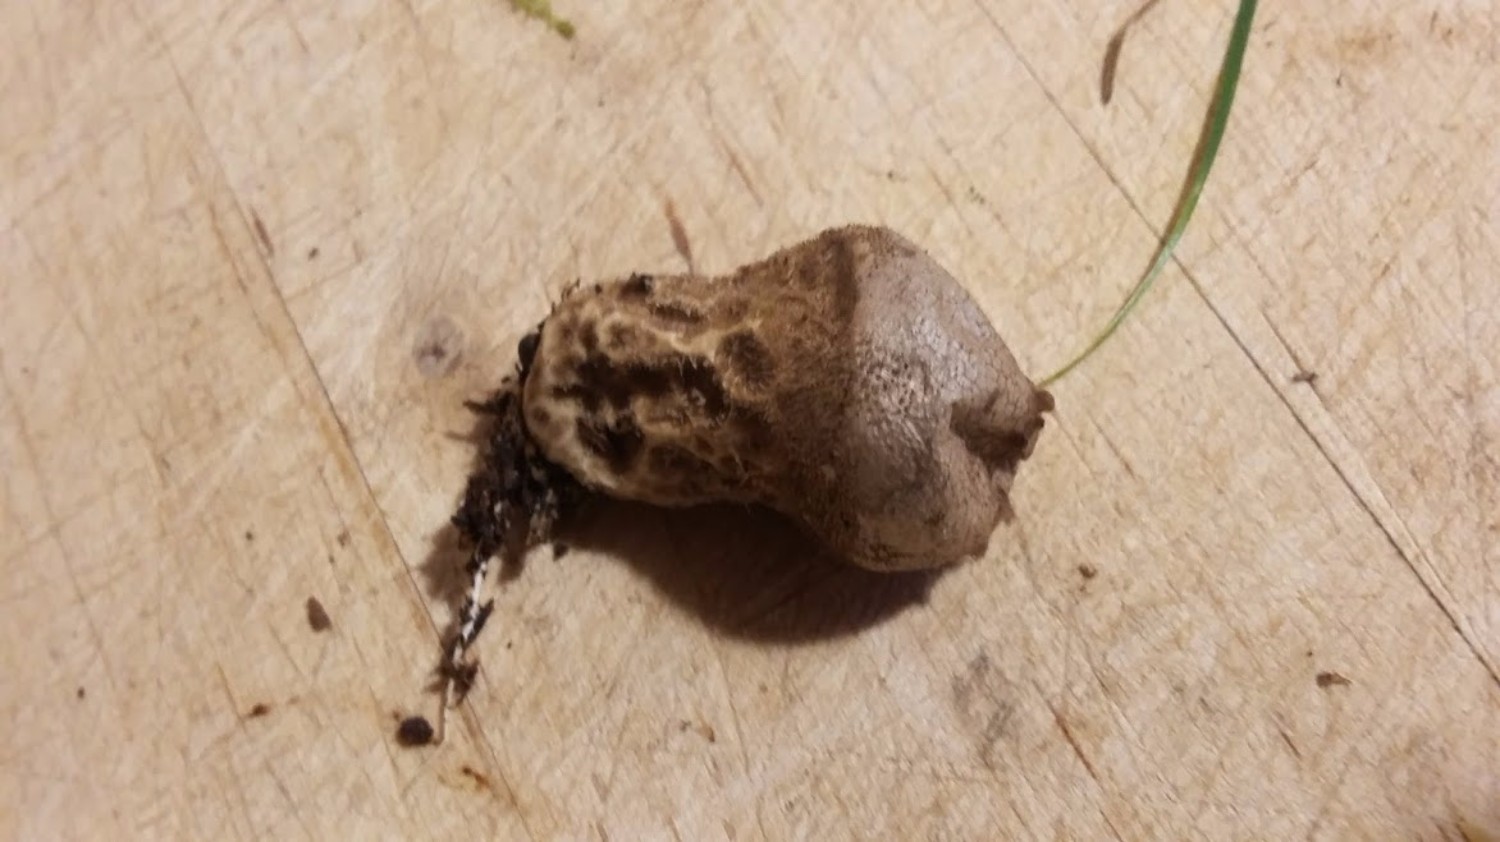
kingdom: Fungi
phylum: Basidiomycota
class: Agaricomycetes
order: Agaricales
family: Lycoperdaceae
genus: Lycoperdon
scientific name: Lycoperdon nigrescens
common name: sortagtig støvbold
